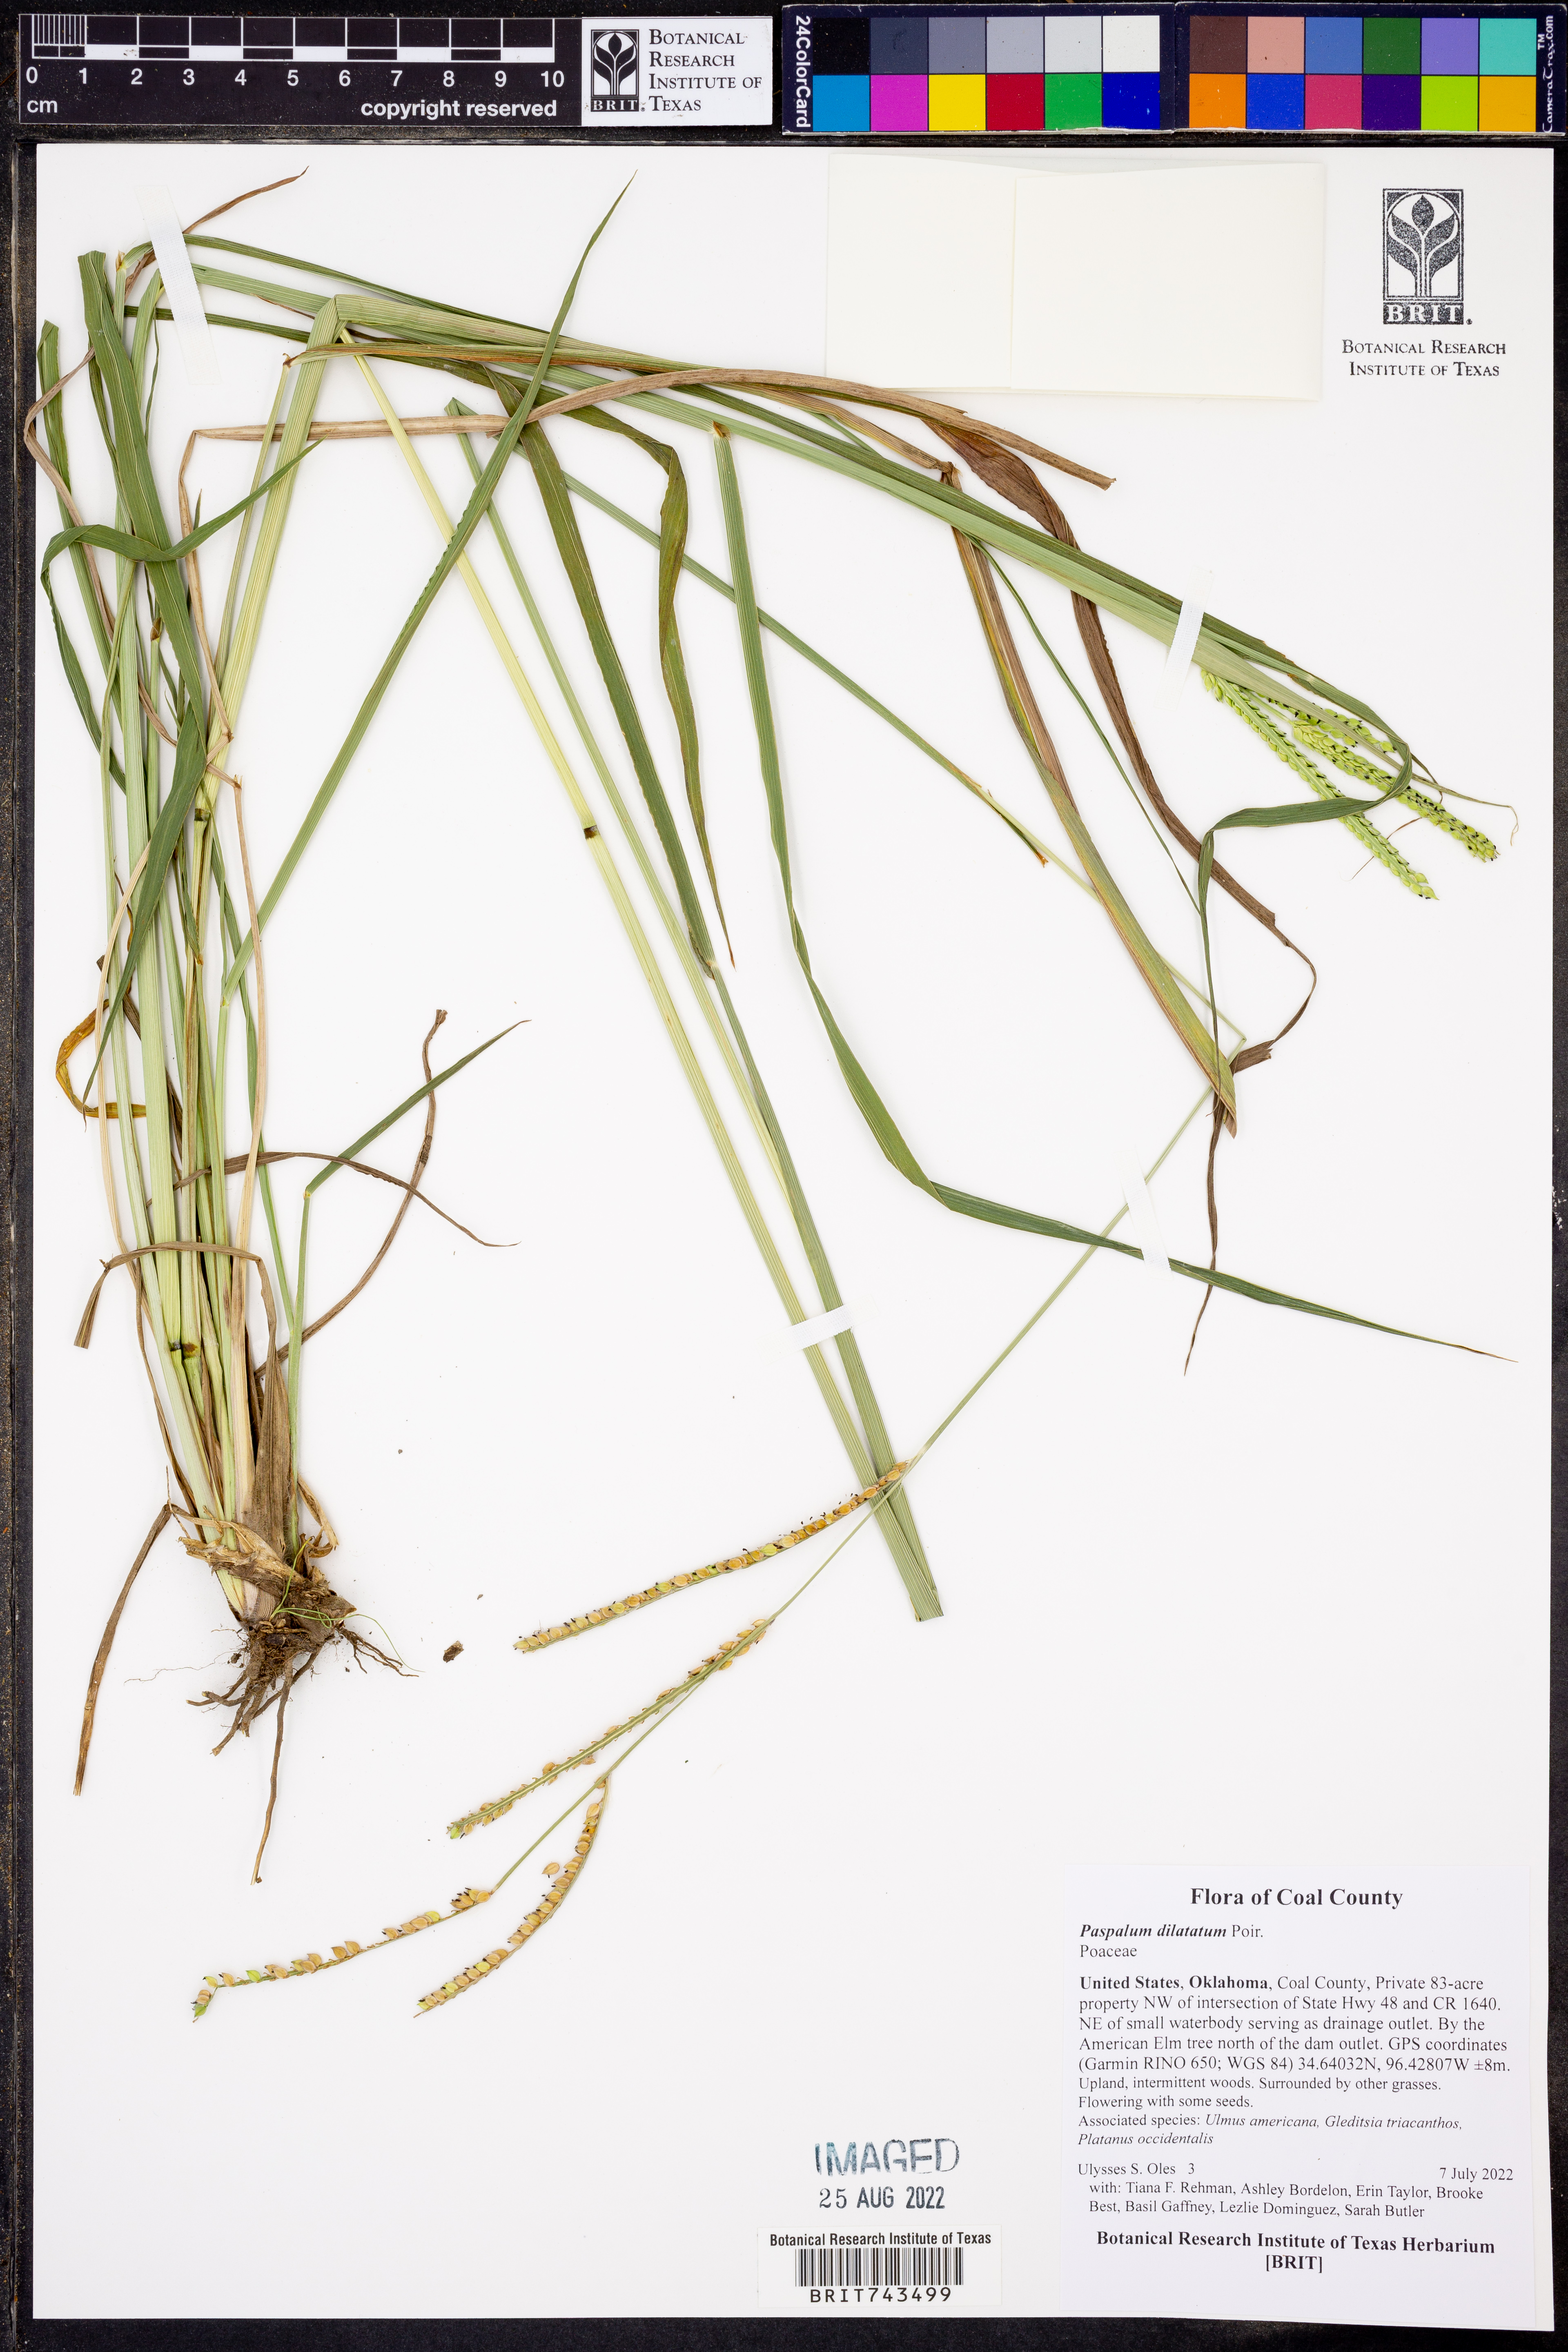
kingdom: Plantae
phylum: Tracheophyta
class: Liliopsida
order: Poales
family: Poaceae
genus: Paspalum
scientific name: Paspalum dilatatum
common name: Dallisgrass
